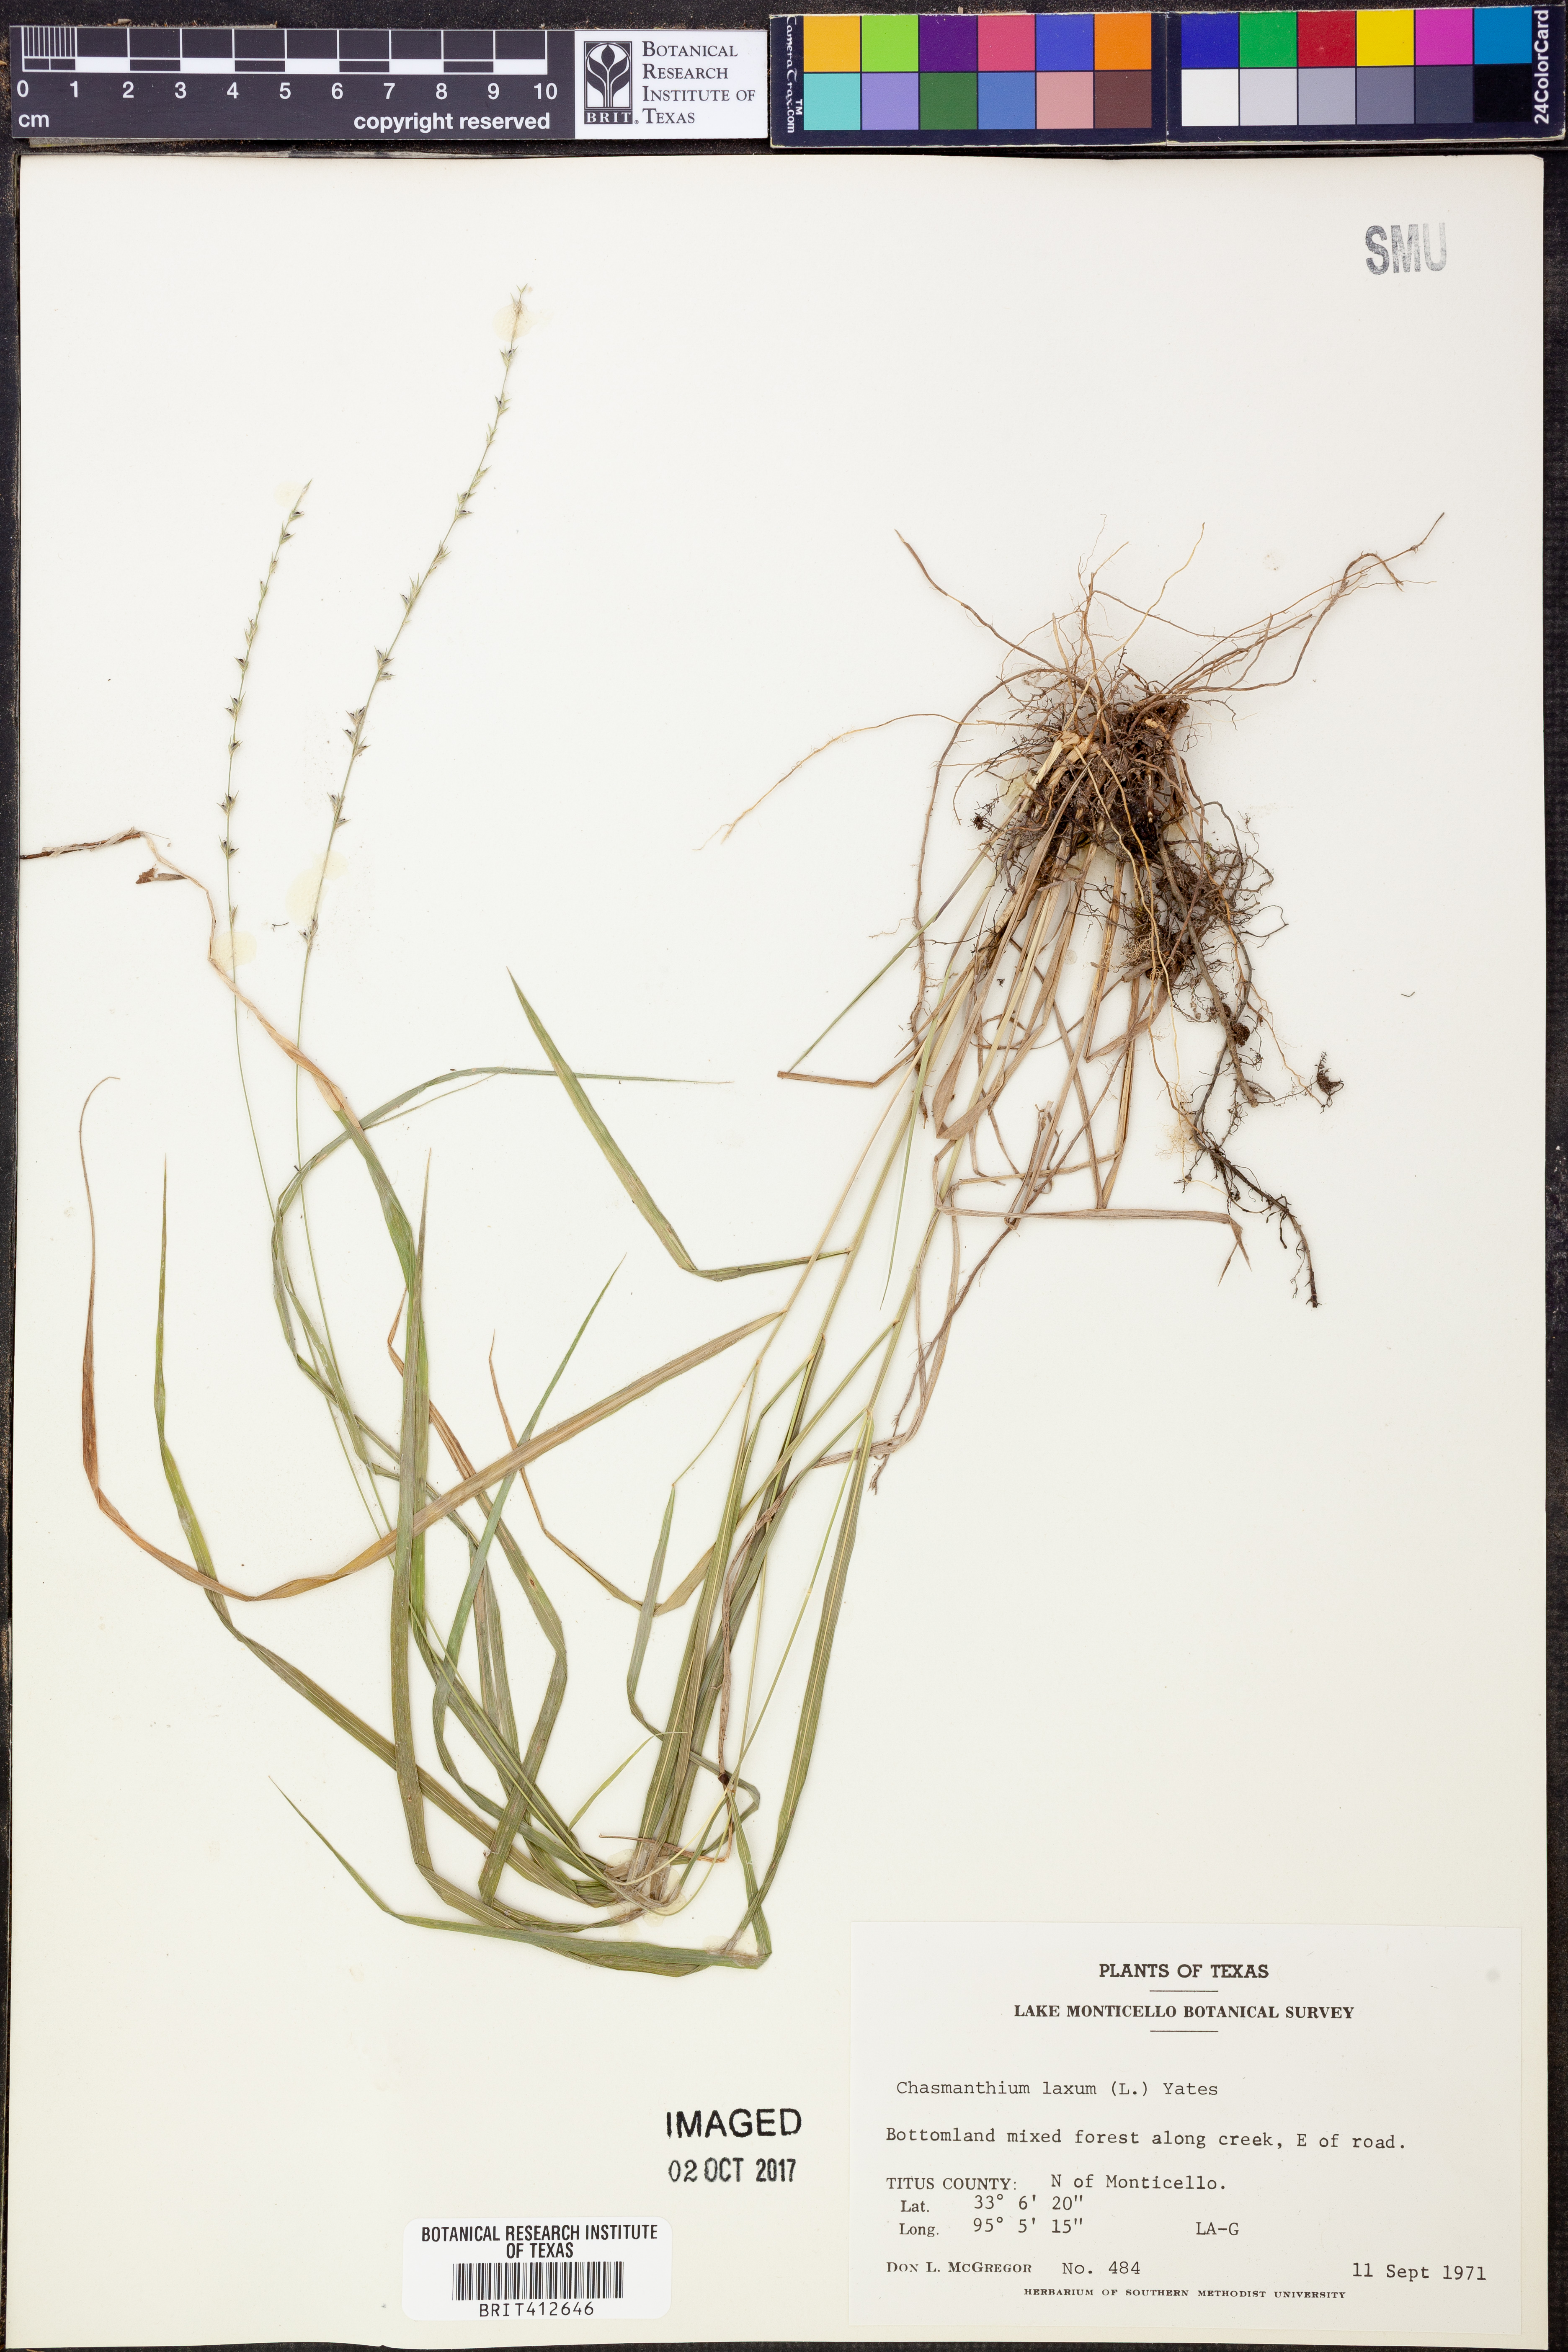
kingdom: Plantae
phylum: Tracheophyta
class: Liliopsida
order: Poales
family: Poaceae
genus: Chasmanthium
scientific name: Chasmanthium laxum
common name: Slender chasmanthium
